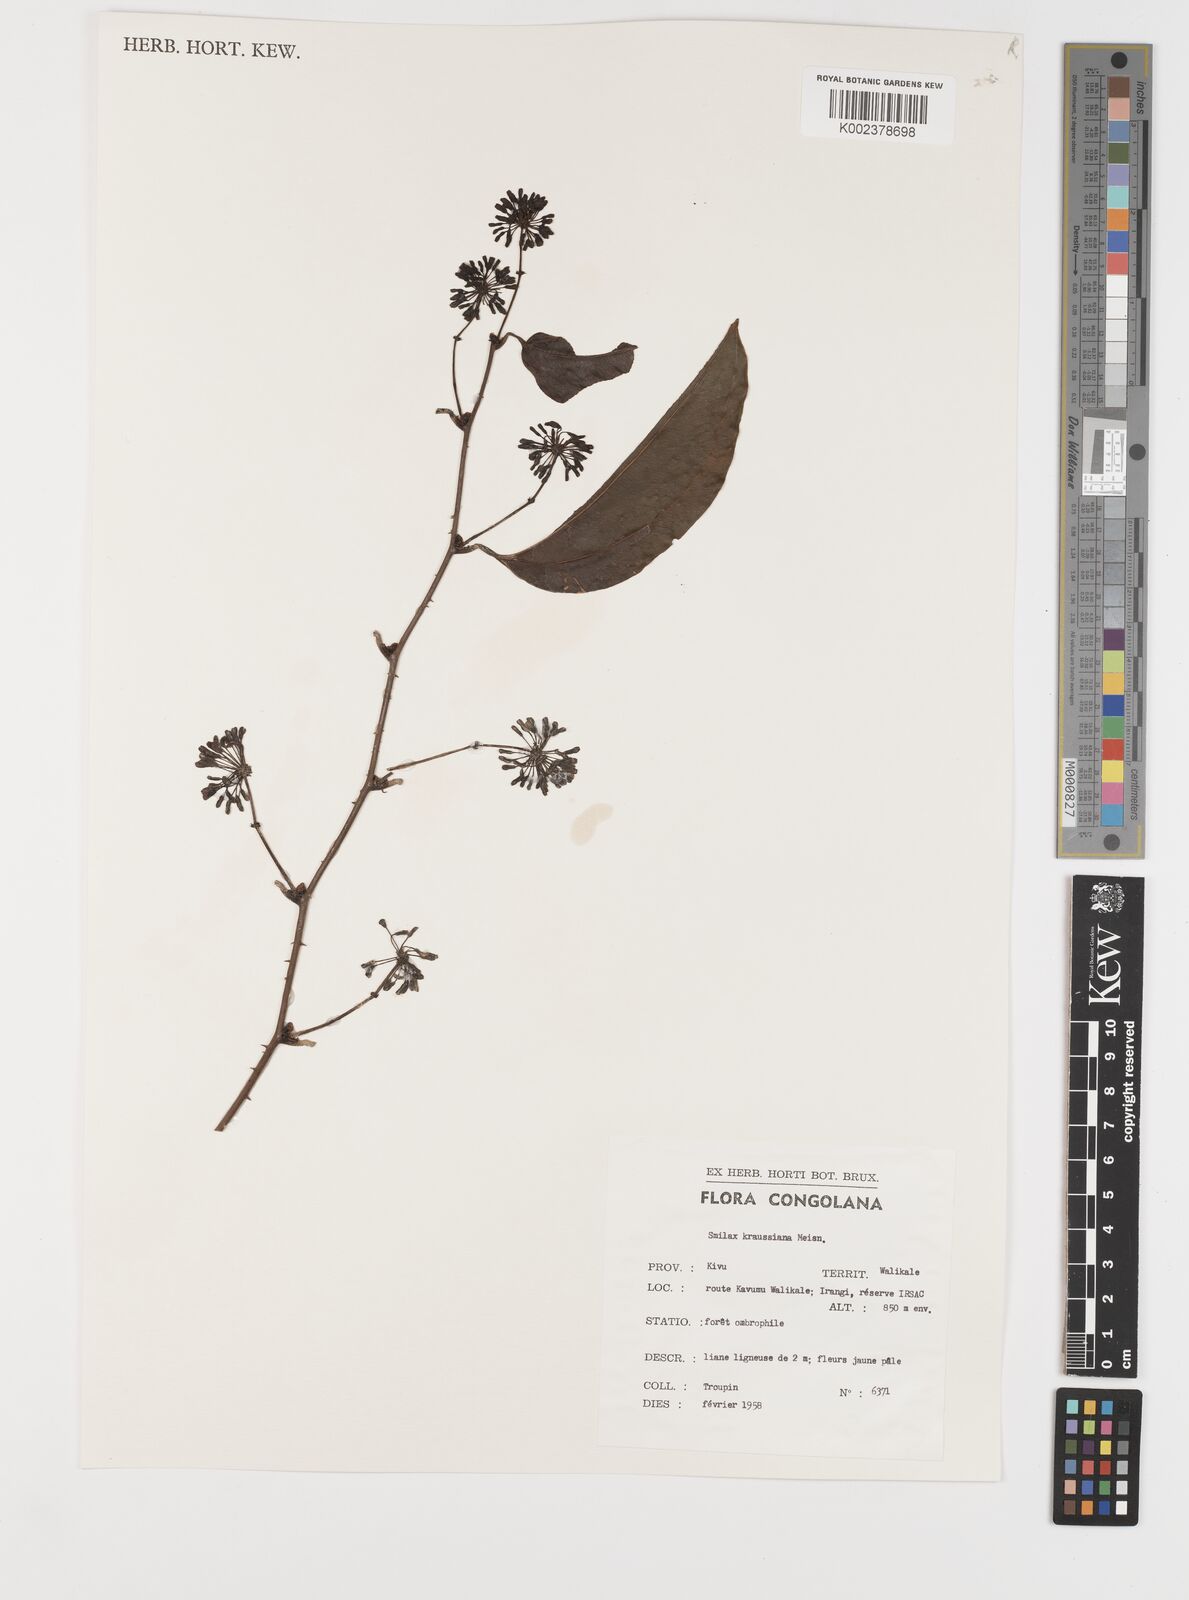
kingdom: Plantae
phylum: Tracheophyta
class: Liliopsida
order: Liliales
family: Smilacaceae
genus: Smilax
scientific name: Smilax anceps
